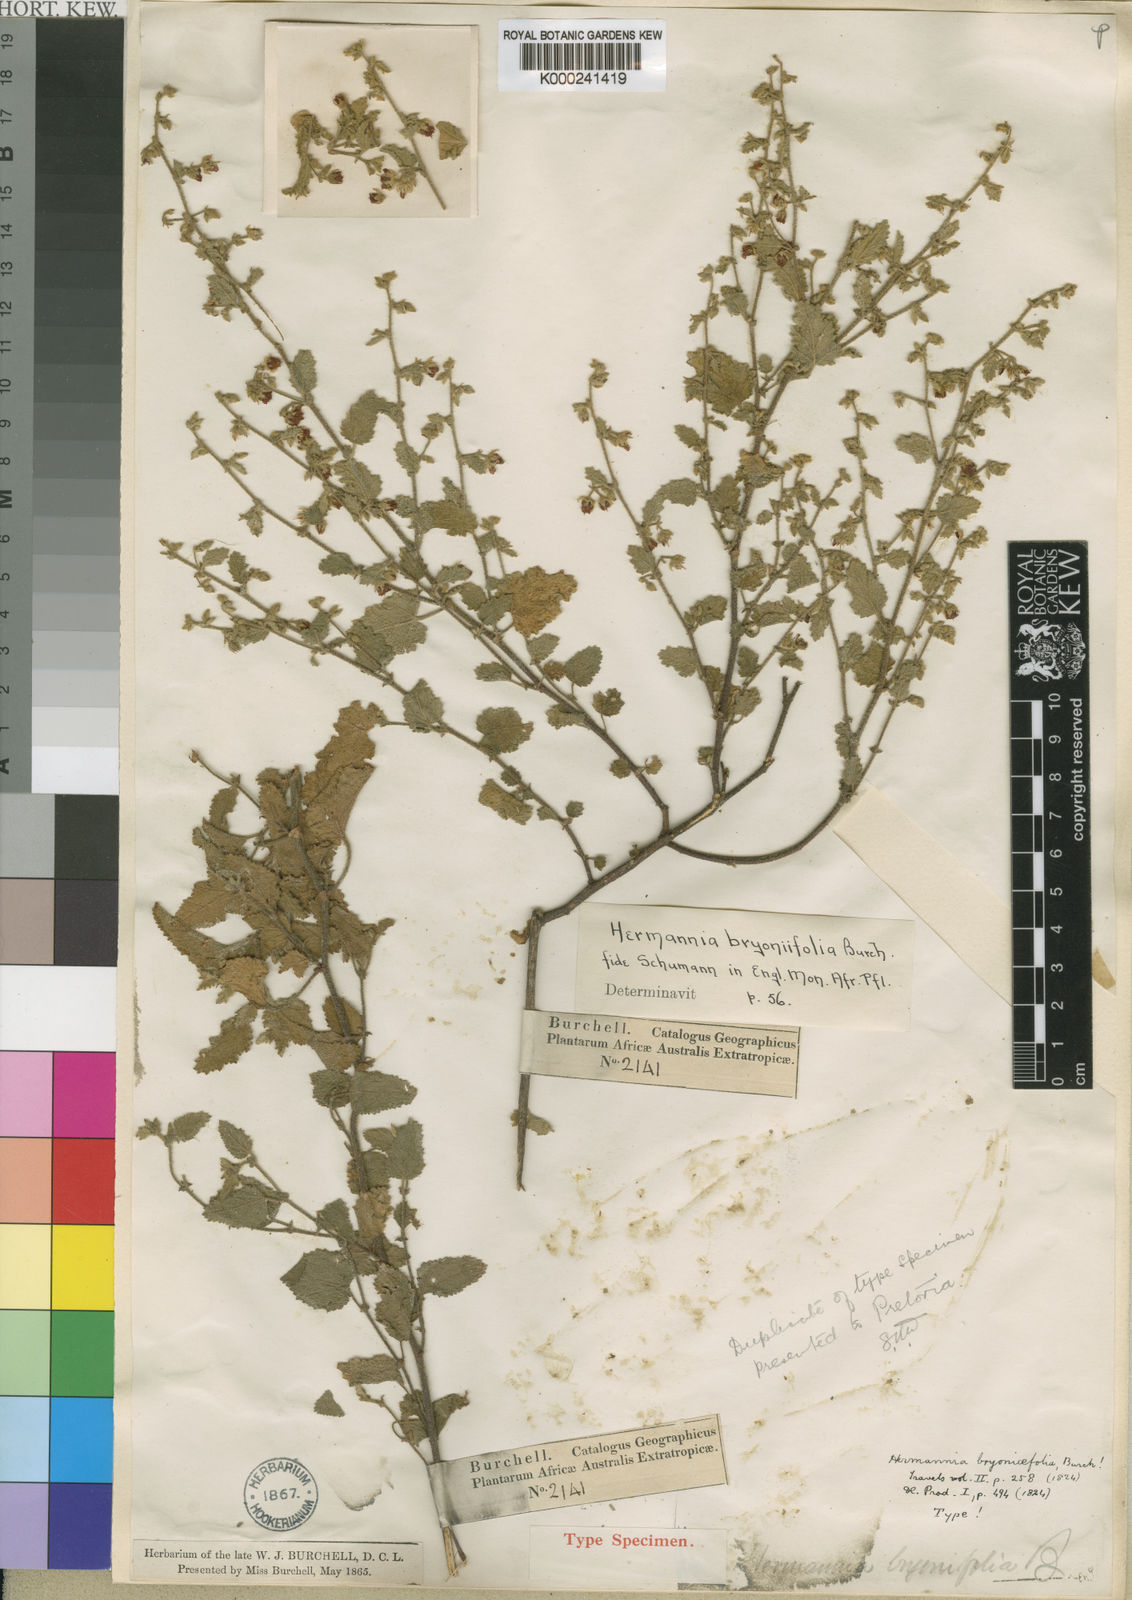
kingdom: Plantae
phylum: Tracheophyta
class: Magnoliopsida
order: Malvales
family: Malvaceae
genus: Hermannia
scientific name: Hermannia bryoniifolia
